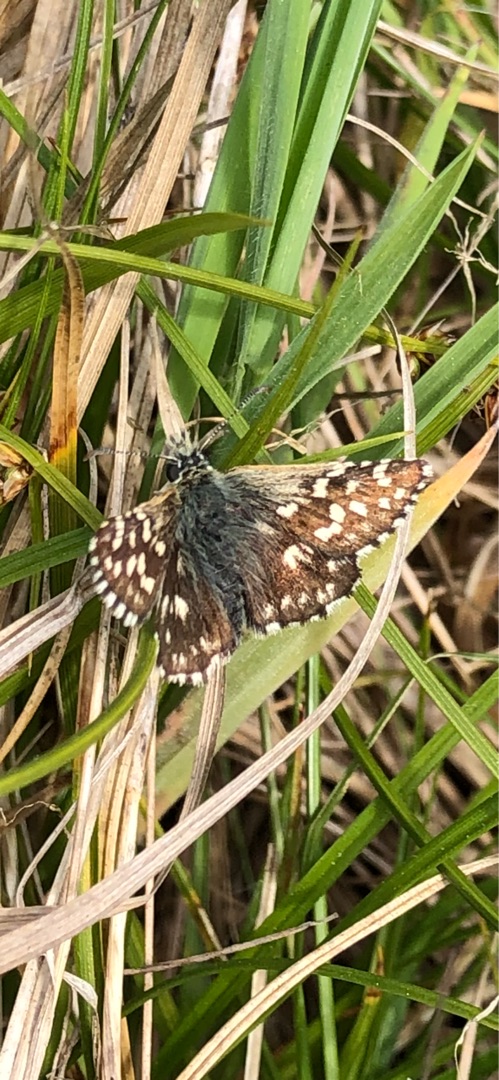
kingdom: Animalia
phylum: Arthropoda
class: Insecta
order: Lepidoptera
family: Hesperiidae
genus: Pyrgus
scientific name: Pyrgus malvae
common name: Spættet bredpande
